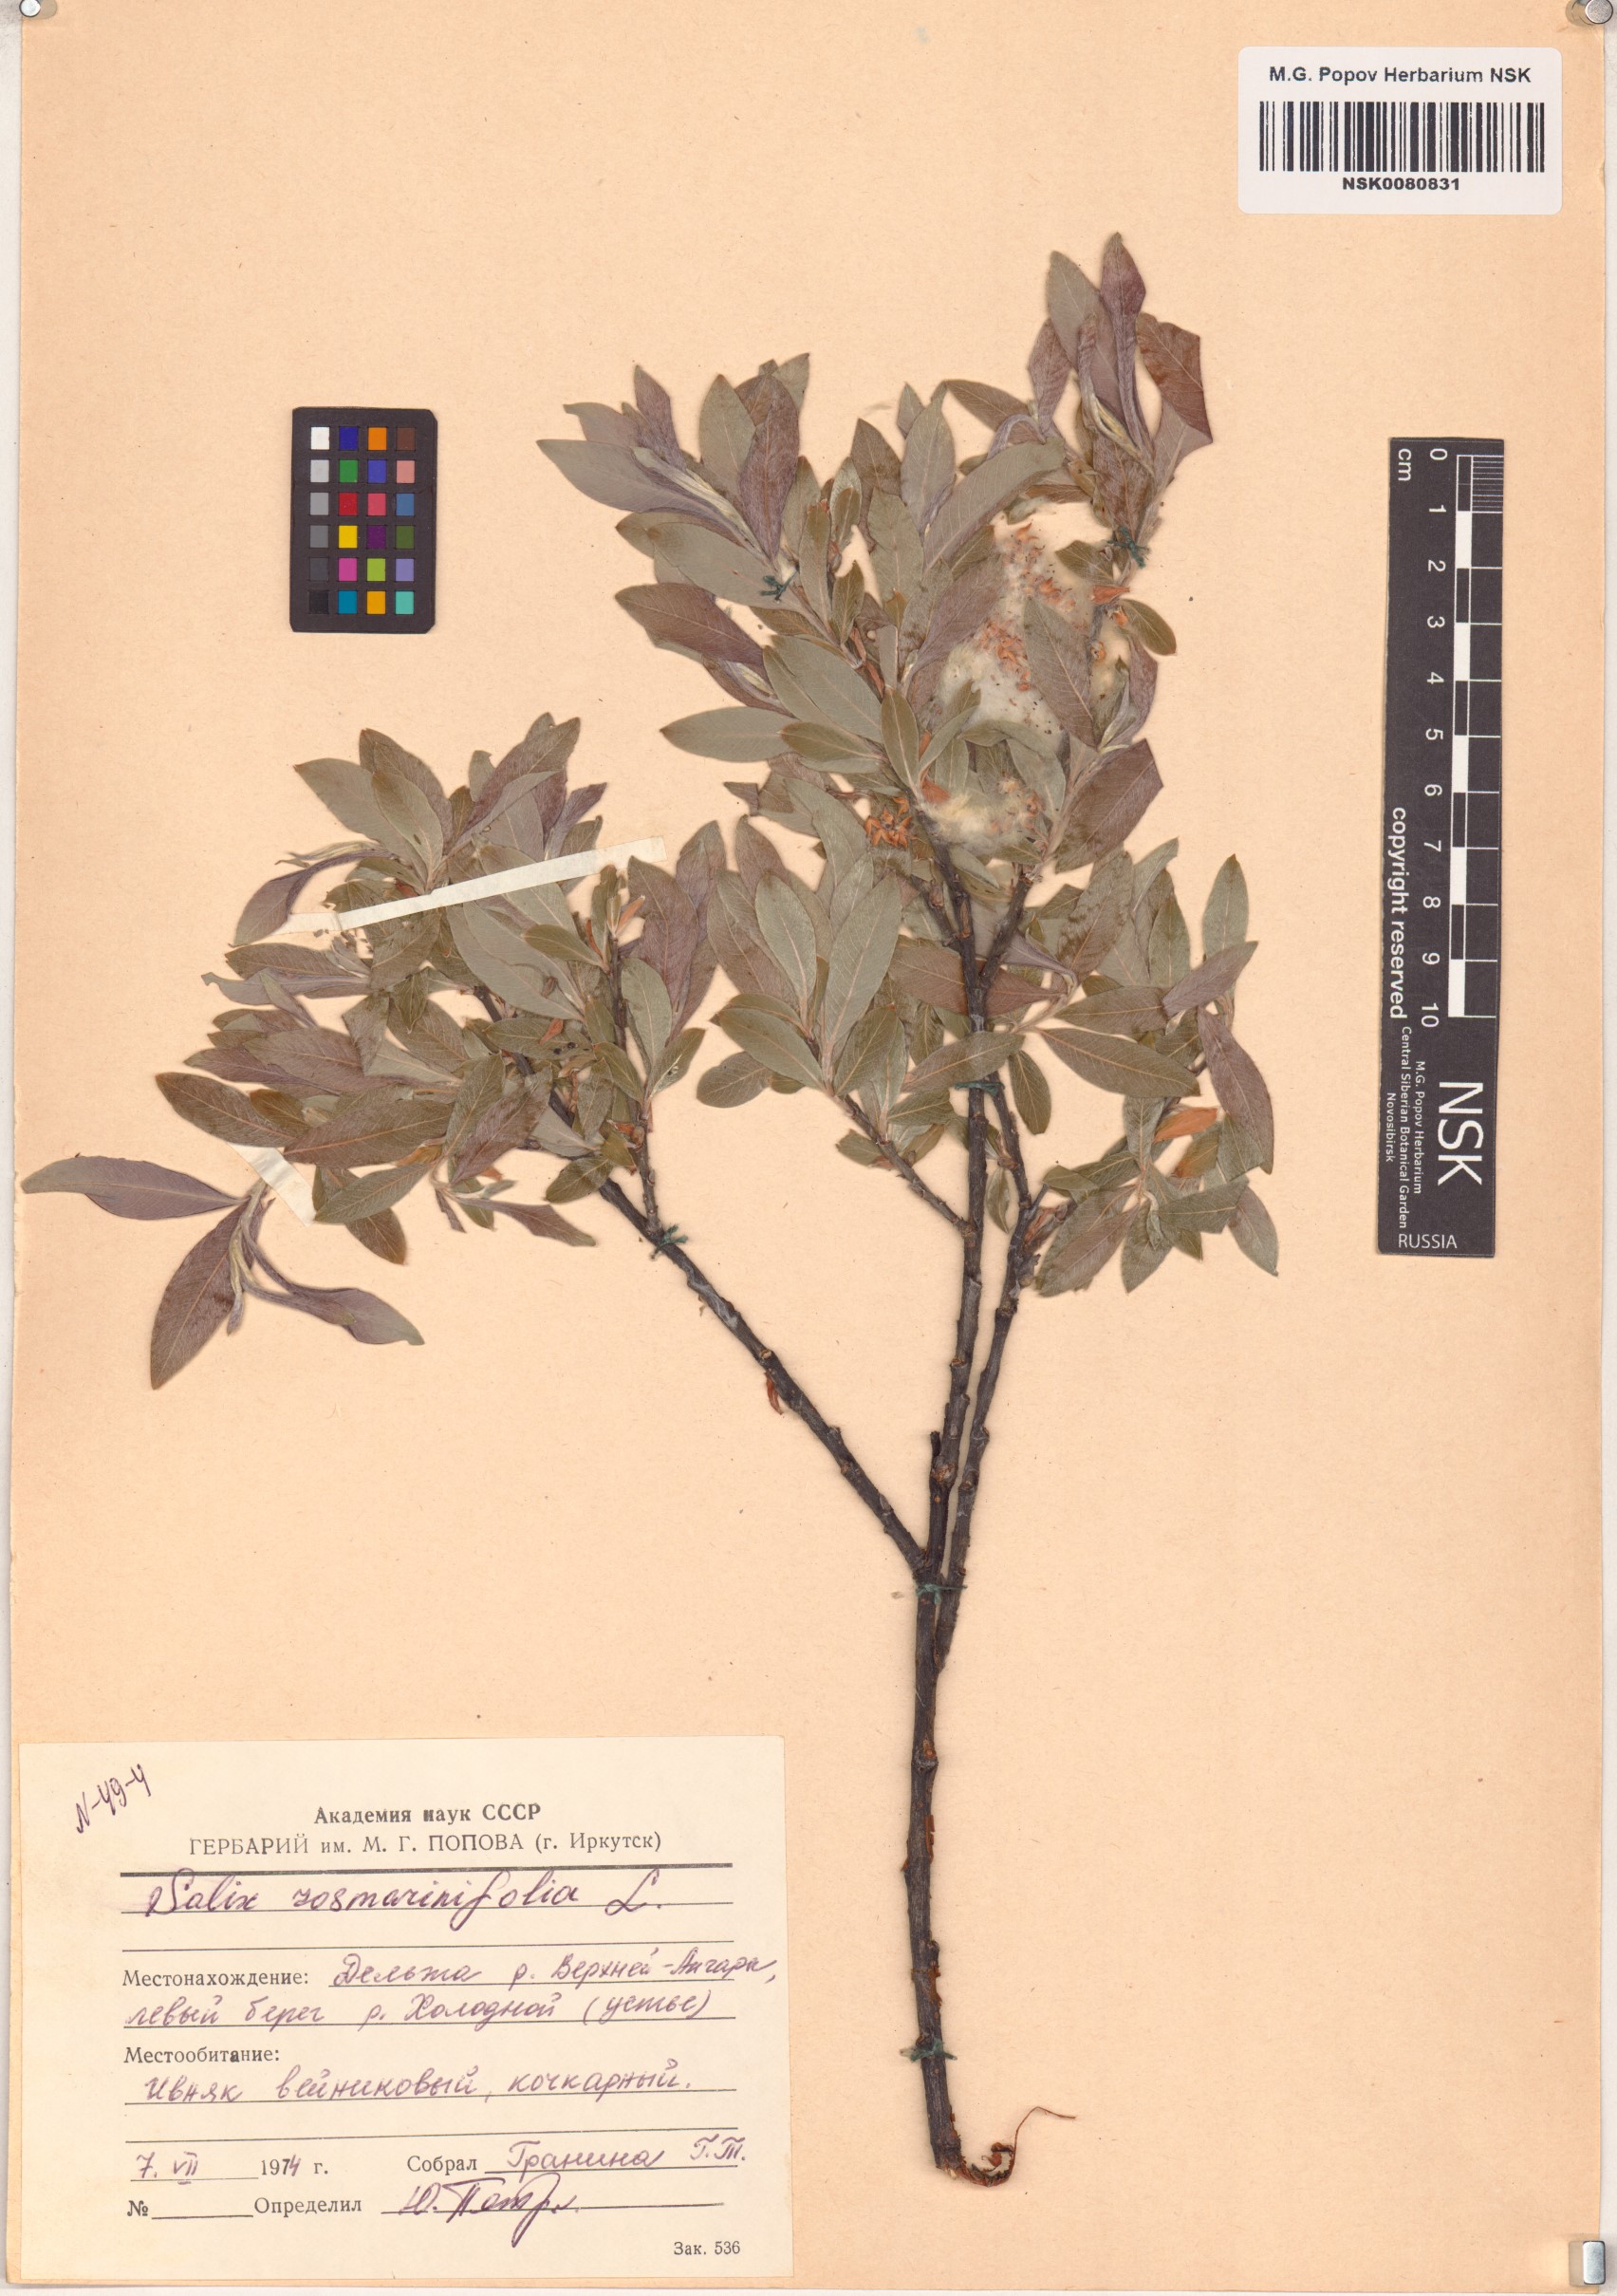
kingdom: Plantae
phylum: Tracheophyta
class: Magnoliopsida
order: Malpighiales
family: Salicaceae
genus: Salix
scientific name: Salix rosmarinifolia
